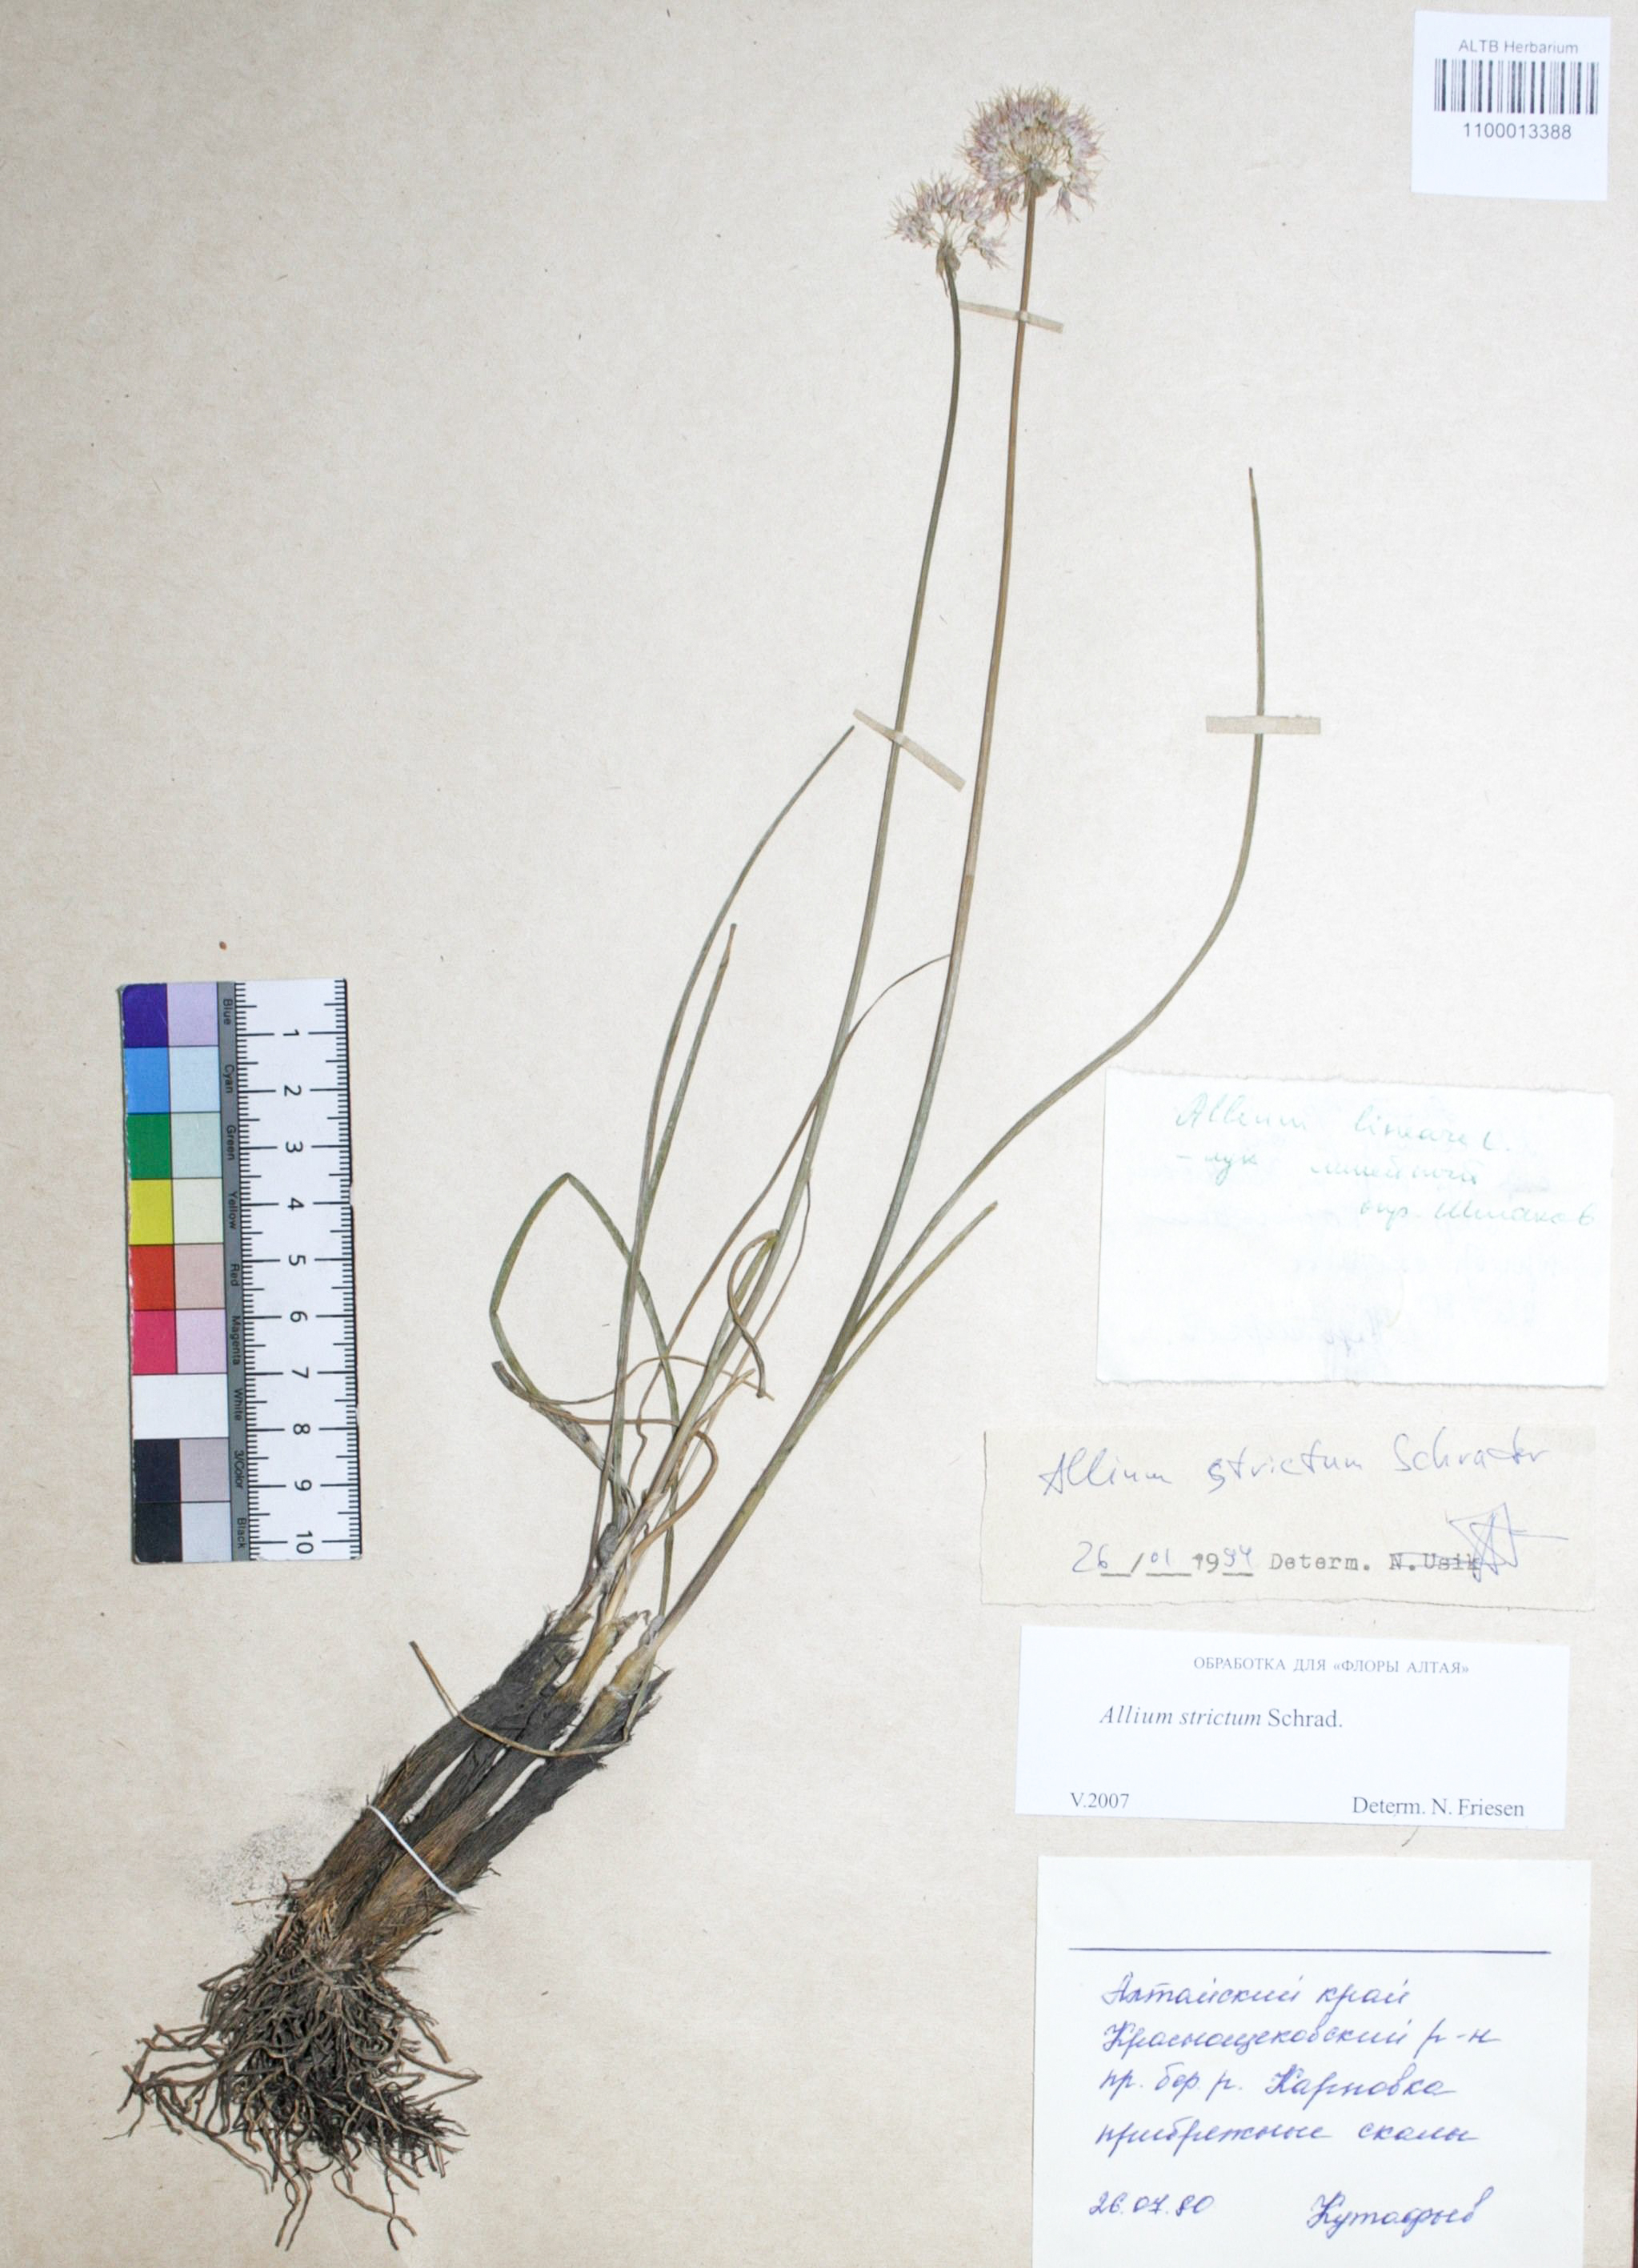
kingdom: Plantae
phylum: Tracheophyta
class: Liliopsida
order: Asparagales
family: Amaryllidaceae
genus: Allium
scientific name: Allium strictum
